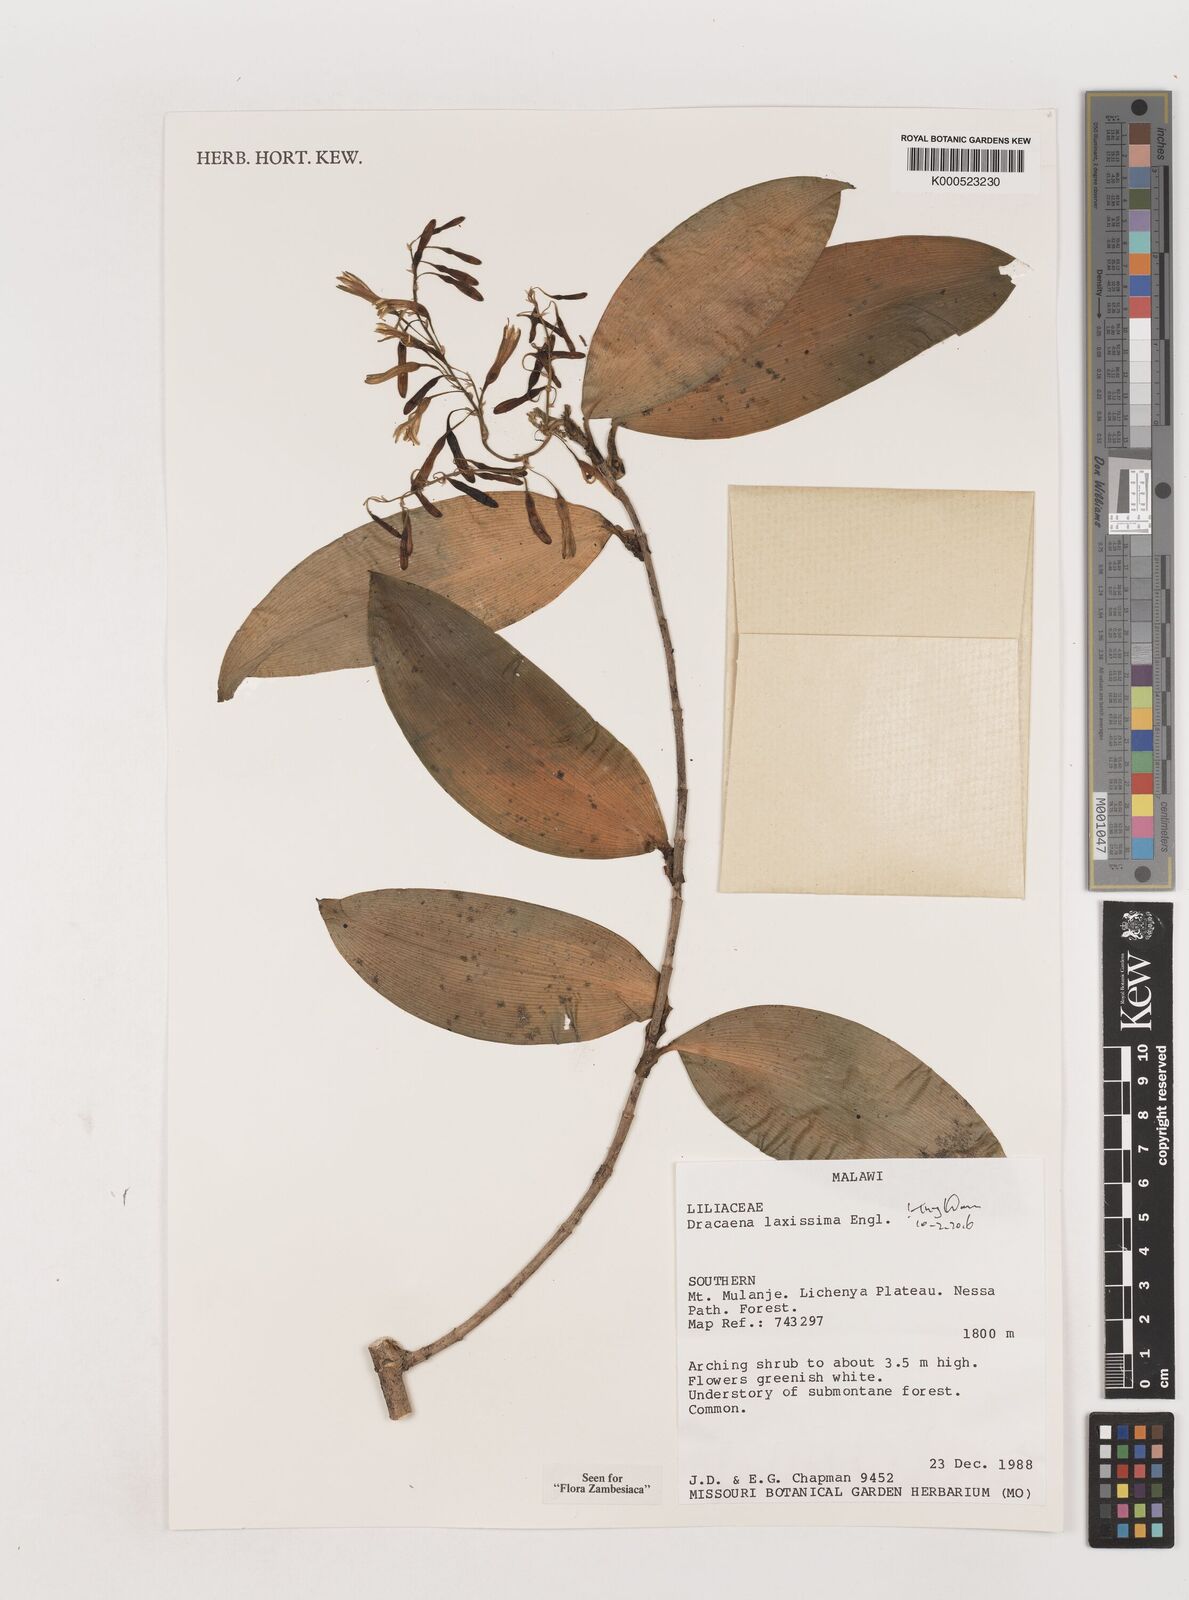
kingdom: Plantae
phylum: Tracheophyta
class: Liliopsida
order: Asparagales
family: Asparagaceae
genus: Dracaena
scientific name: Dracaena laxissima
